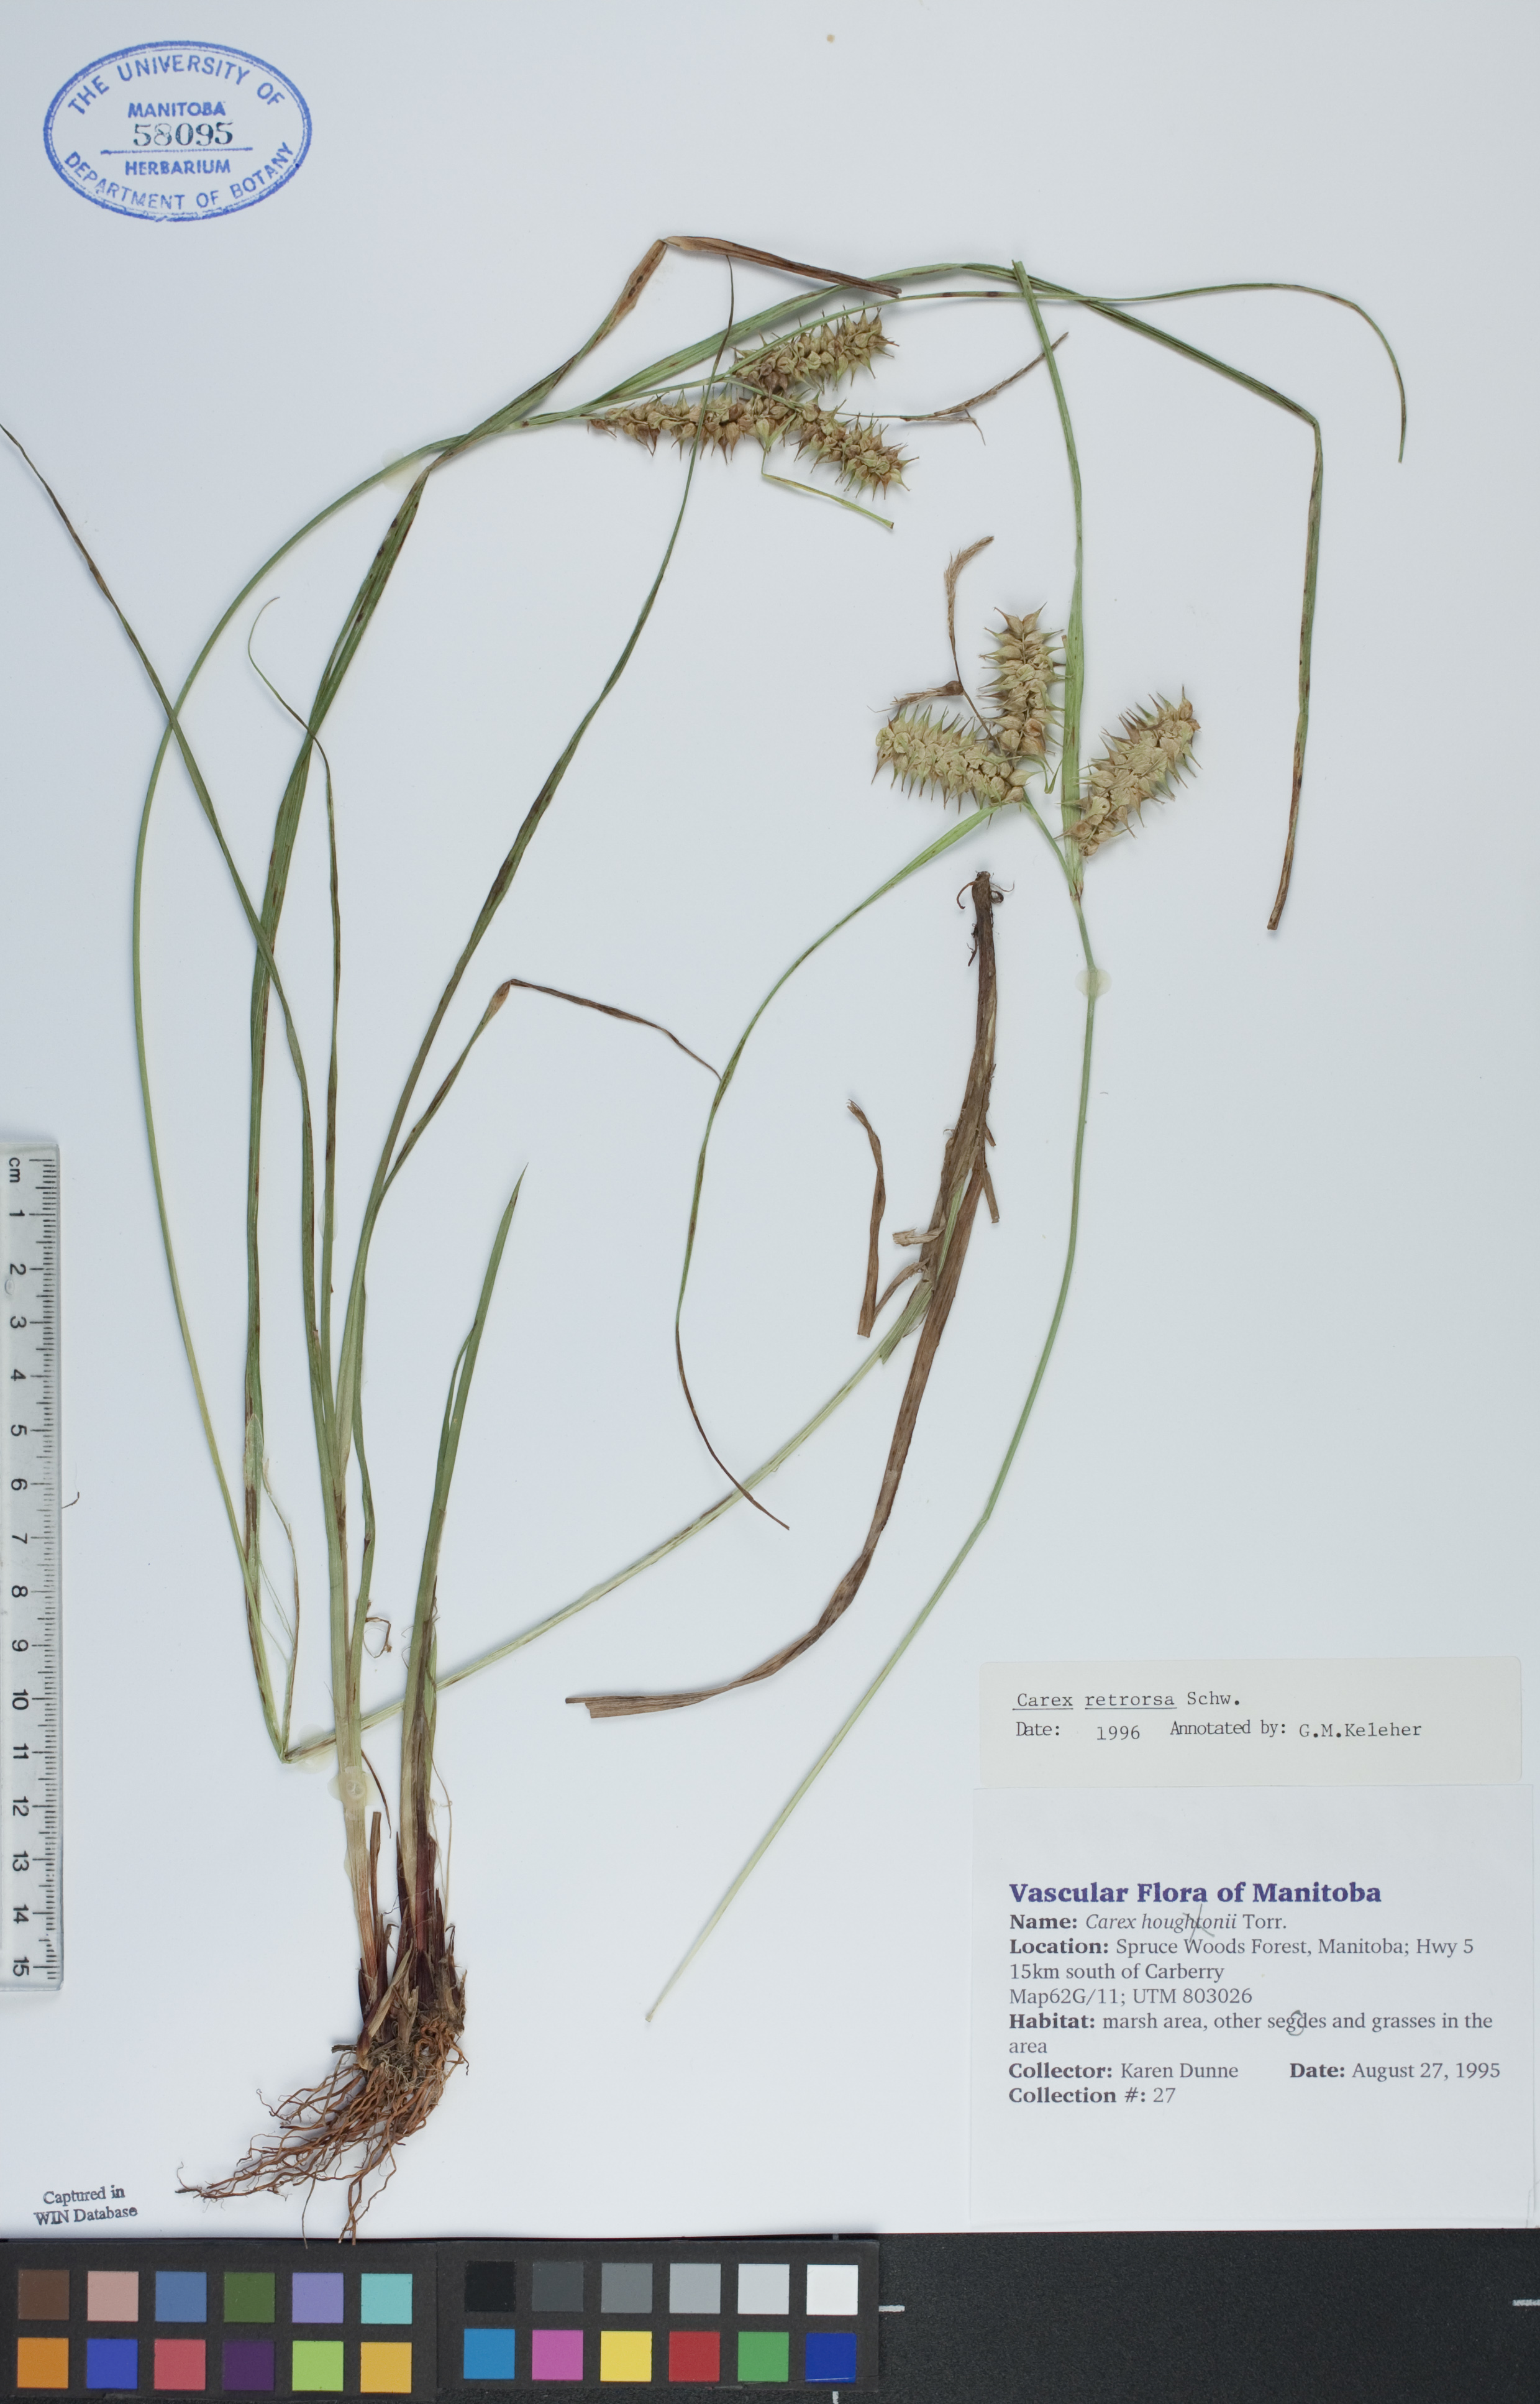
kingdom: Plantae
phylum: Tracheophyta
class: Liliopsida
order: Poales
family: Cyperaceae
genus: Carex
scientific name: Carex retrorsa
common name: Knot-sheath sedge
